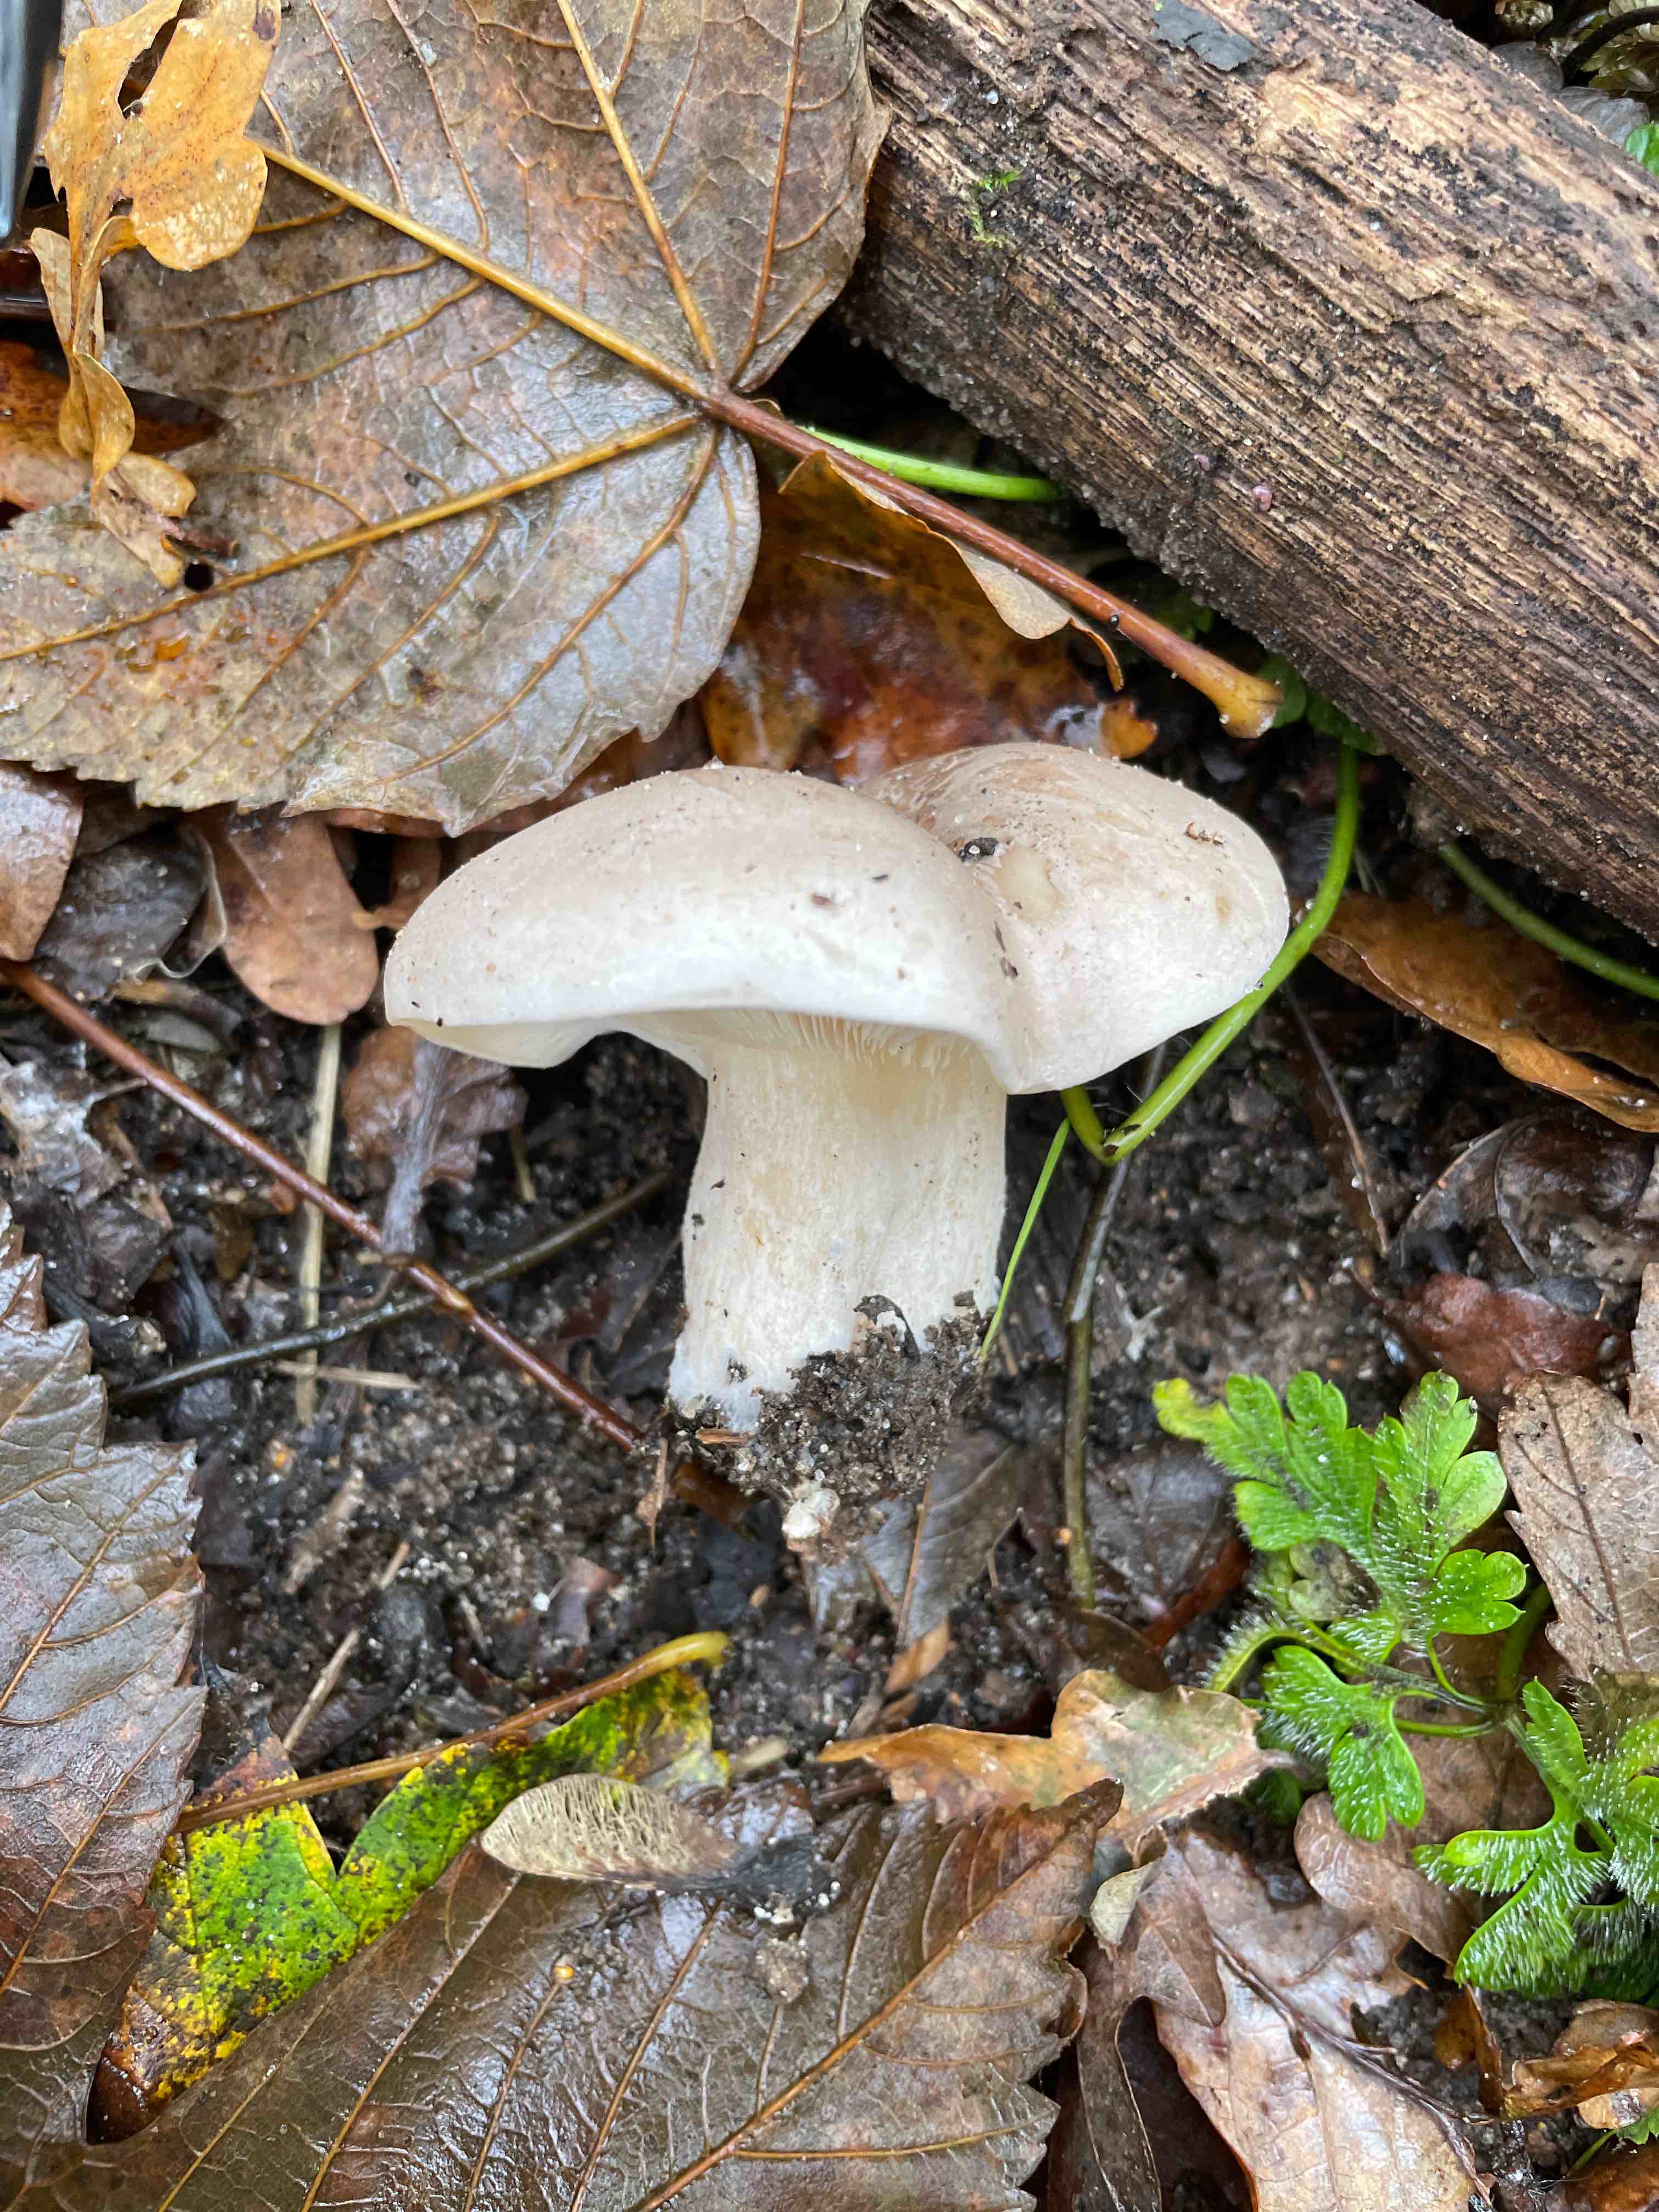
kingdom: Fungi
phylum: Basidiomycota
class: Agaricomycetes
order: Agaricales
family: Tricholomataceae
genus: Clitocybe
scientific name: Clitocybe nebularis
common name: tåge-tragthat
